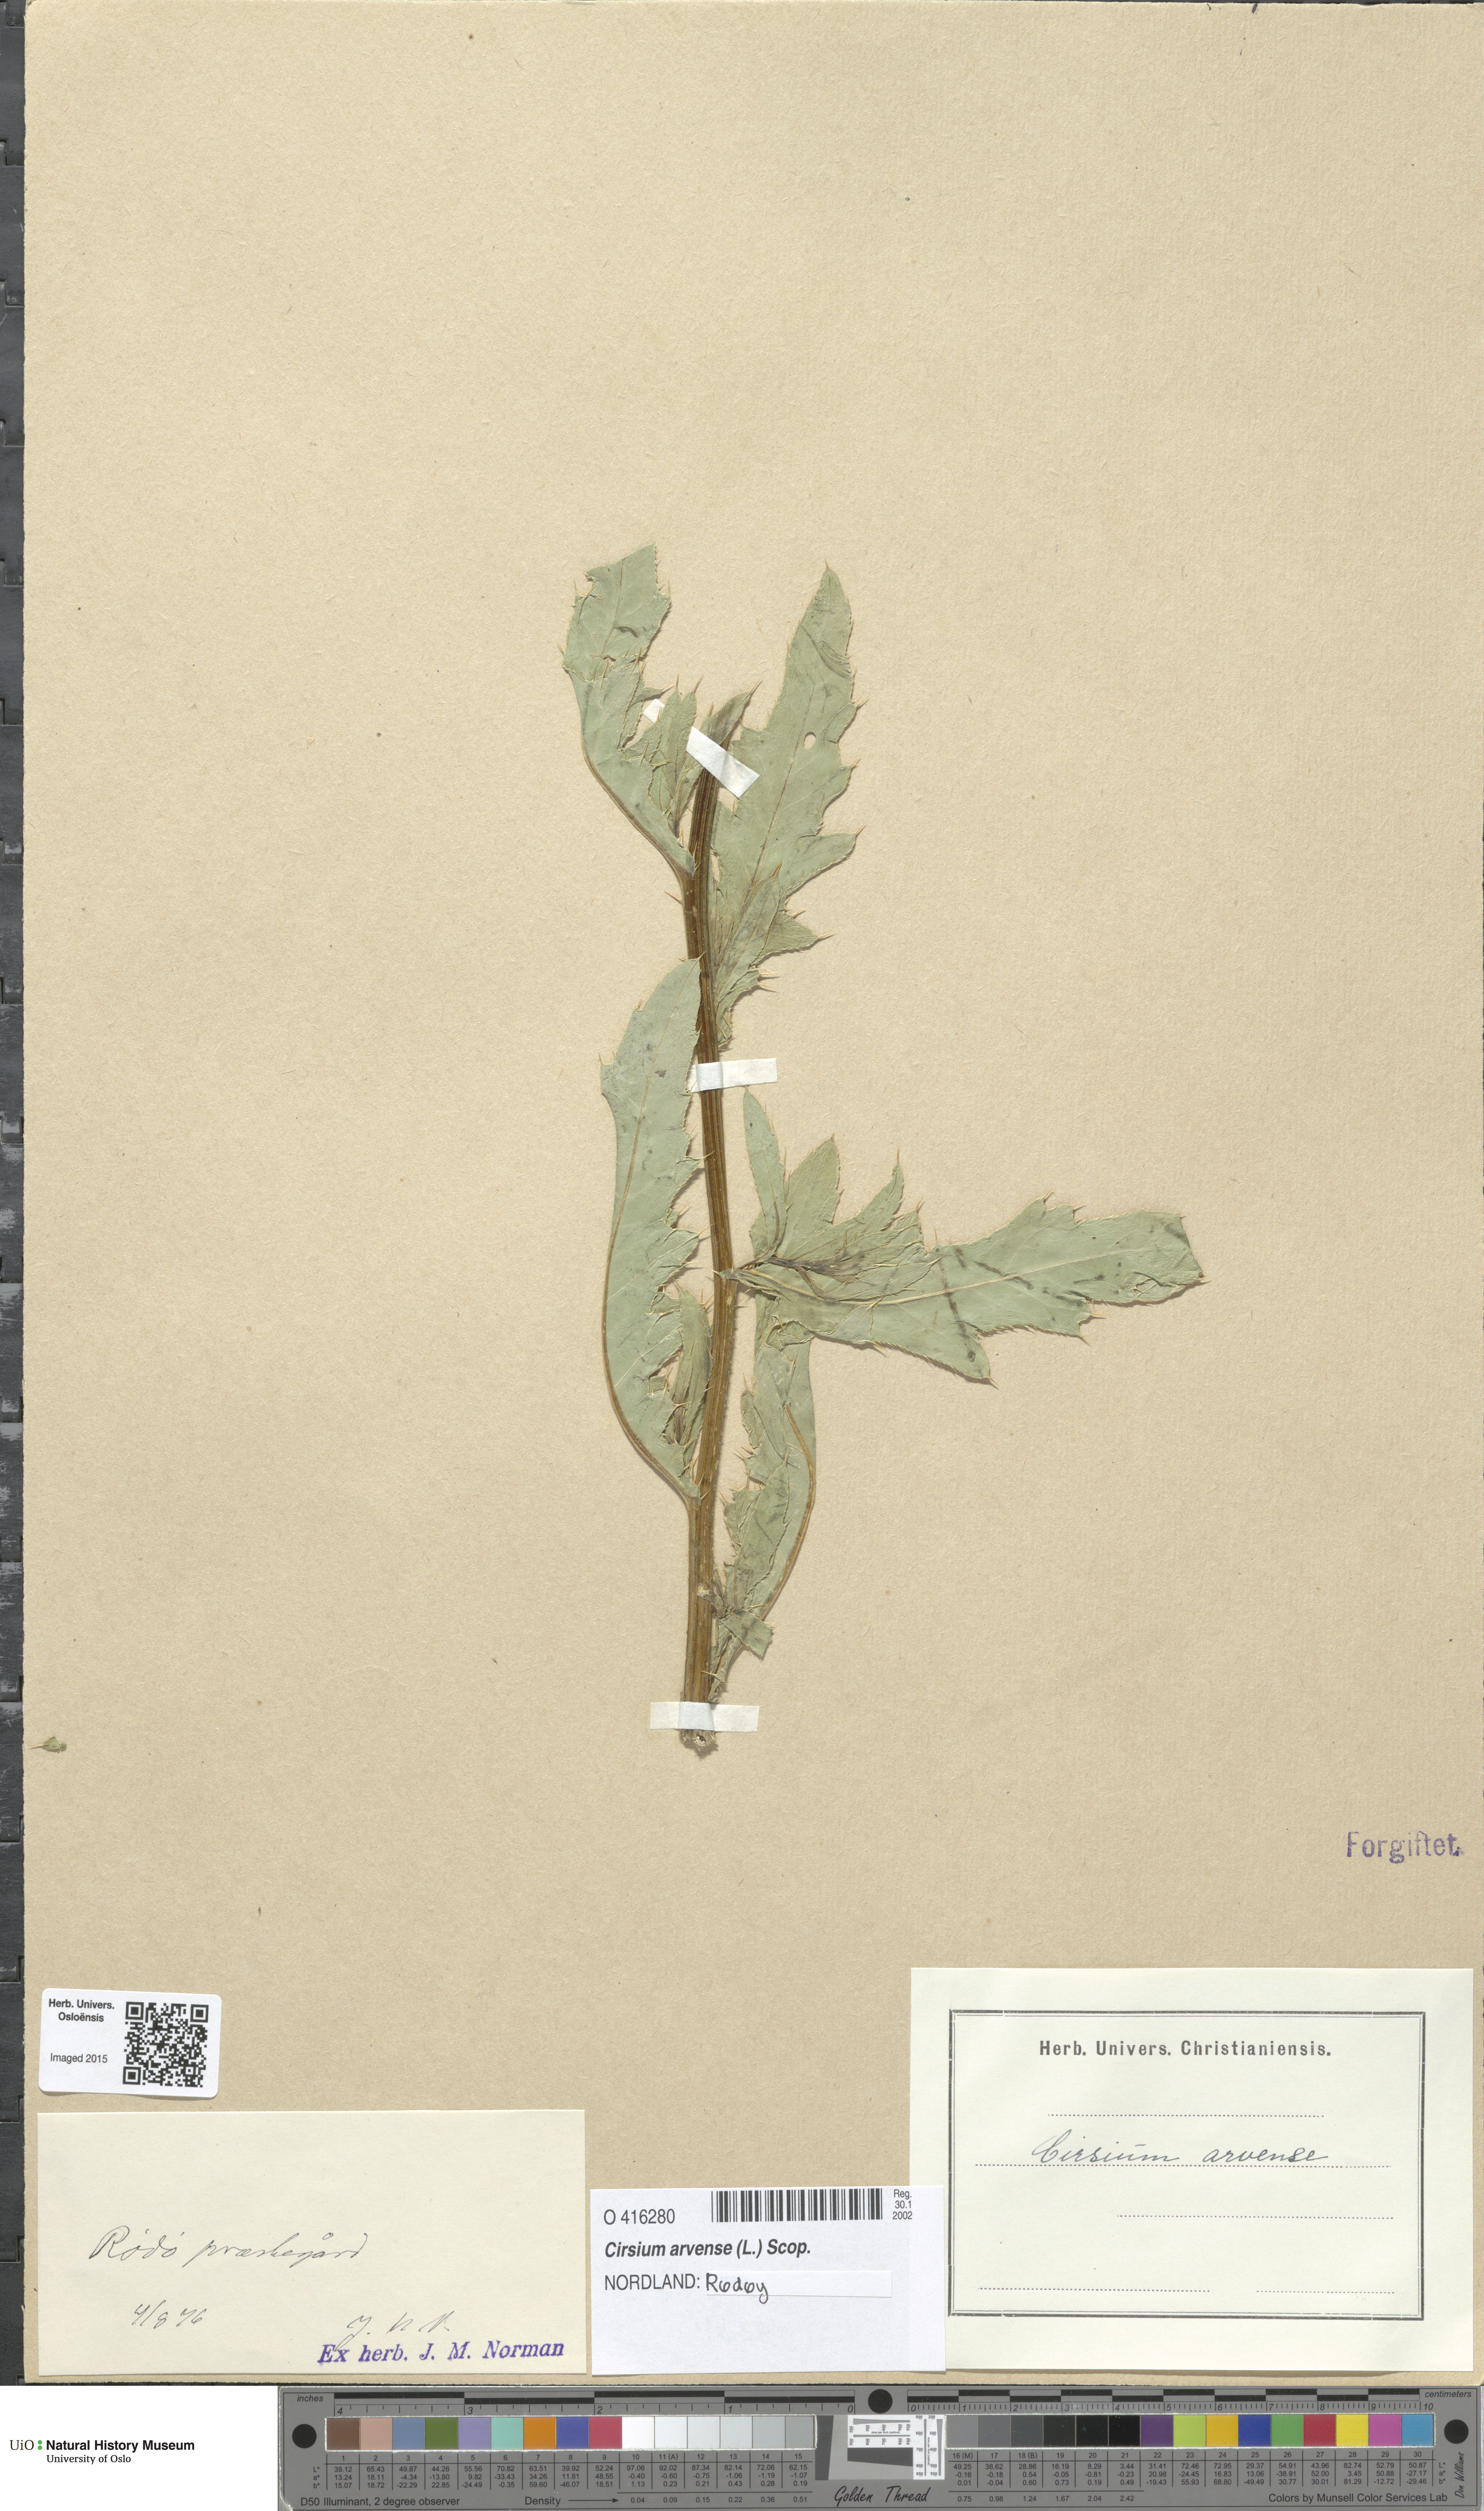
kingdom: Plantae
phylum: Tracheophyta
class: Magnoliopsida
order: Asterales
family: Asteraceae
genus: Cirsium
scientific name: Cirsium arvense
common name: Creeping thistle
